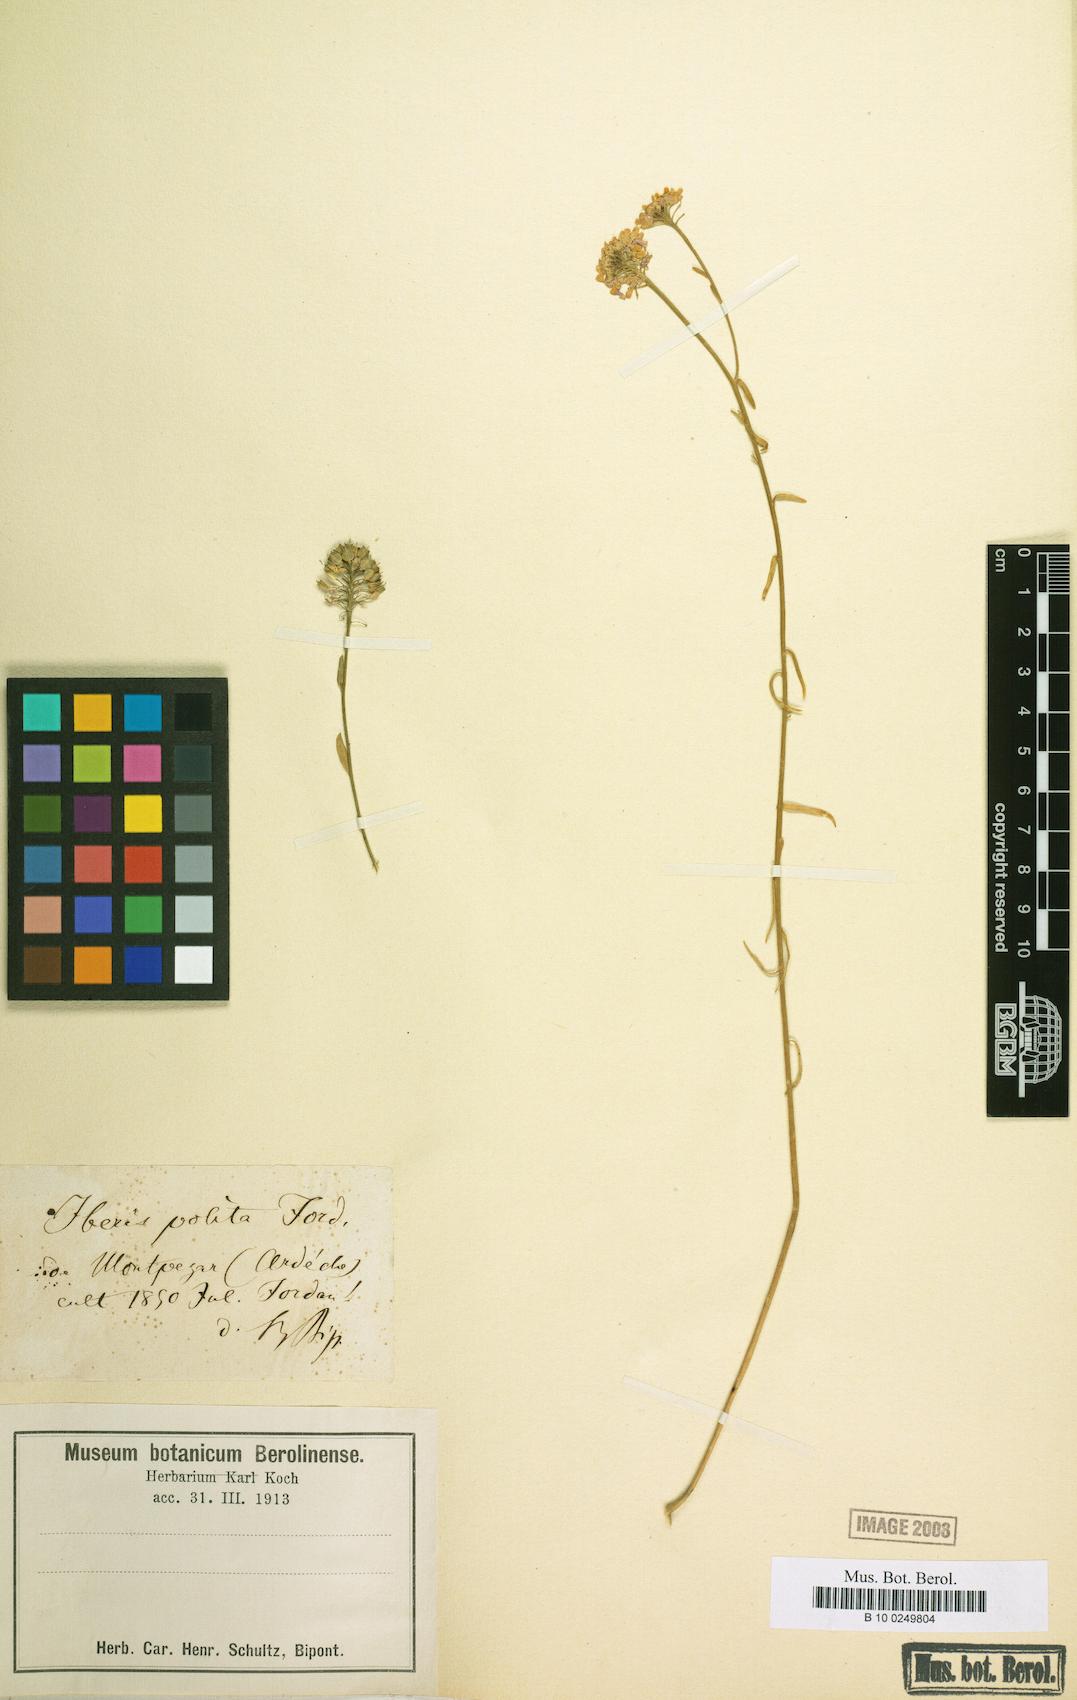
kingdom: Plantae
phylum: Tracheophyta
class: Magnoliopsida
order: Brassicales
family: Brassicaceae
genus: Iberis
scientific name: Iberis linifolia
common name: Candytuft
